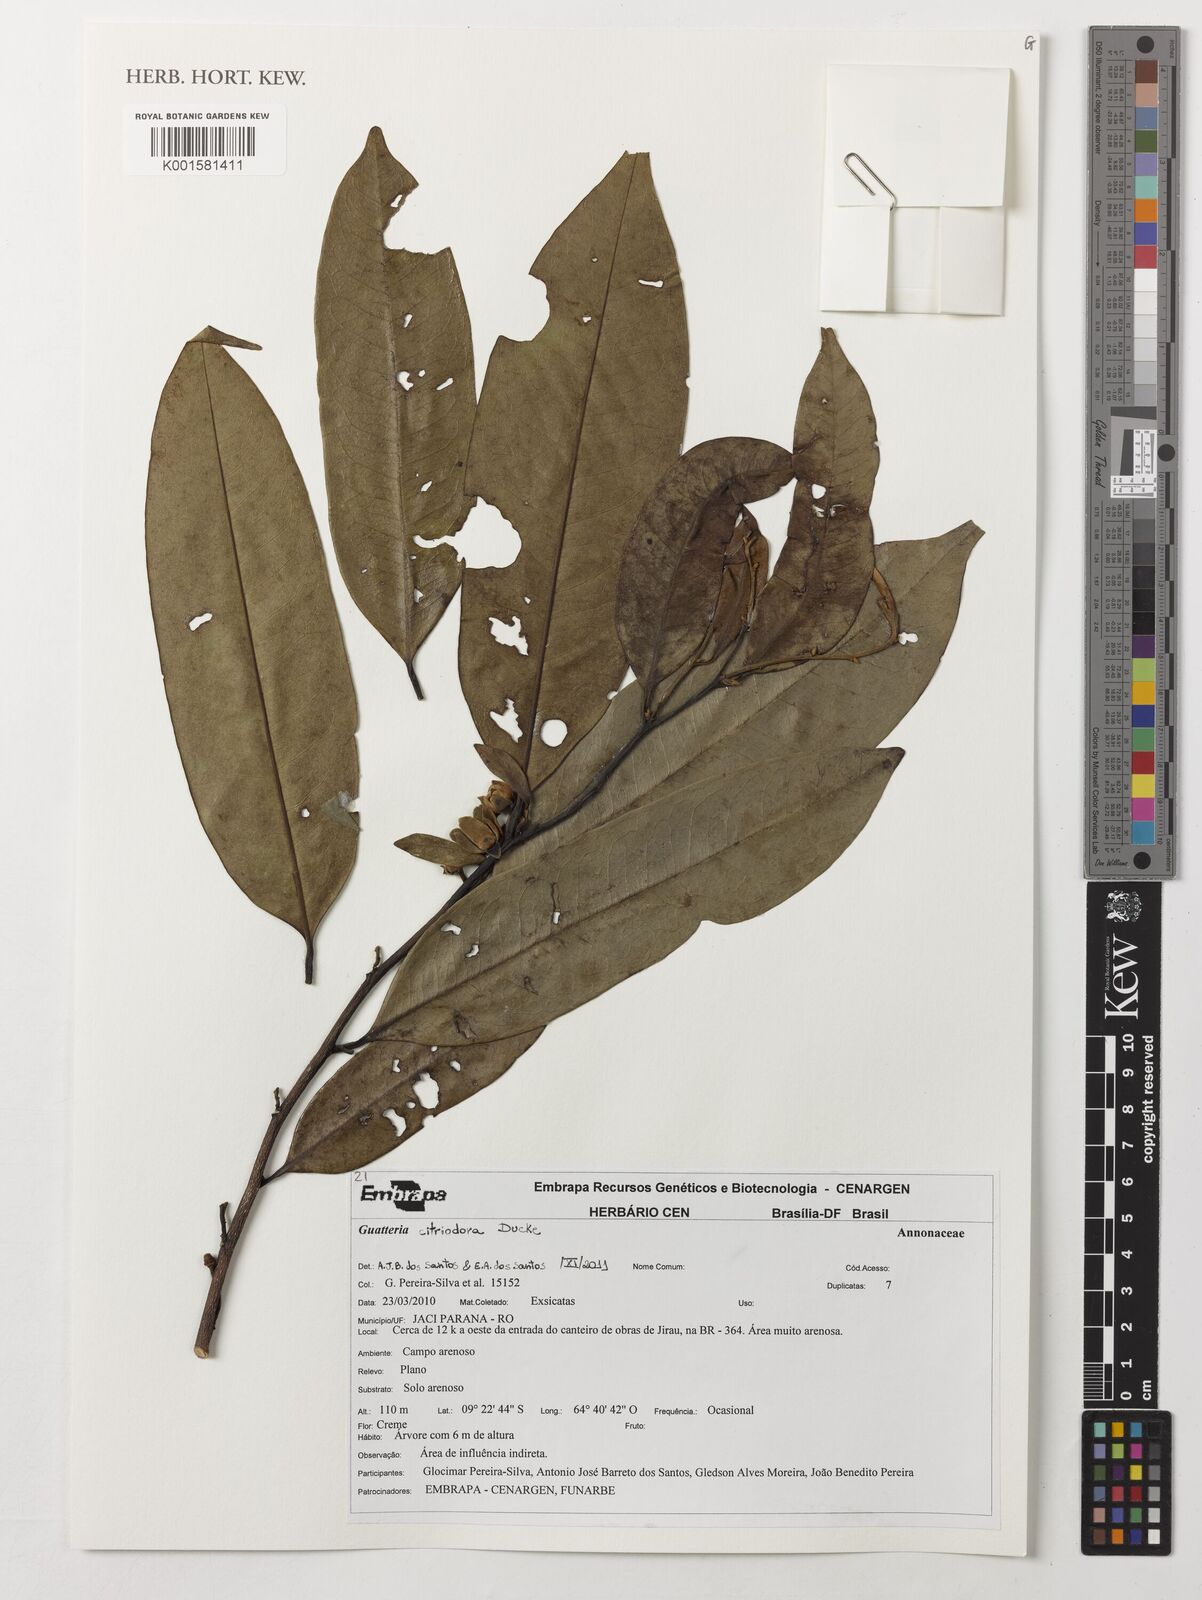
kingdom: Plantae
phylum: Tracheophyta
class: Magnoliopsida
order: Magnoliales
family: Annonaceae
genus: Guatteria
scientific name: Guatteria citriodora
